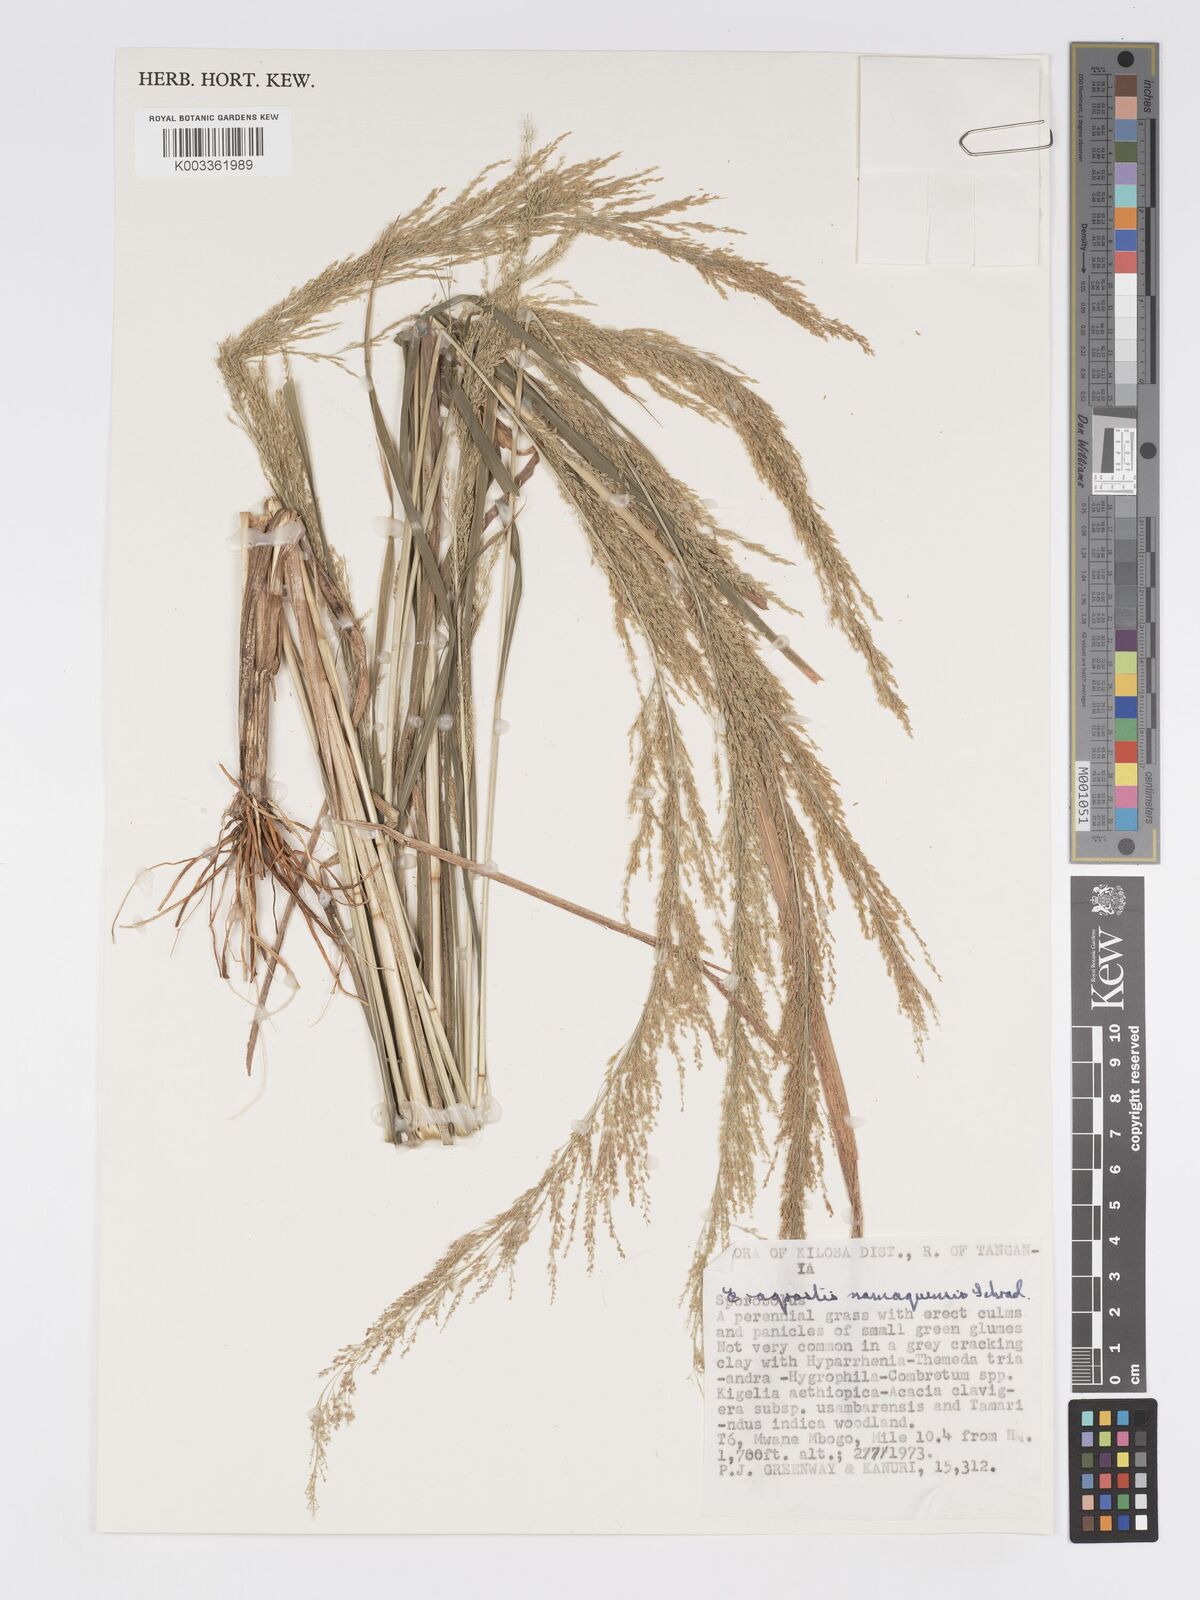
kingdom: Plantae
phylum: Tracheophyta
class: Liliopsida
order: Poales
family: Poaceae
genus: Eragrostis
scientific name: Eragrostis japonica
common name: Pond lovegrass
